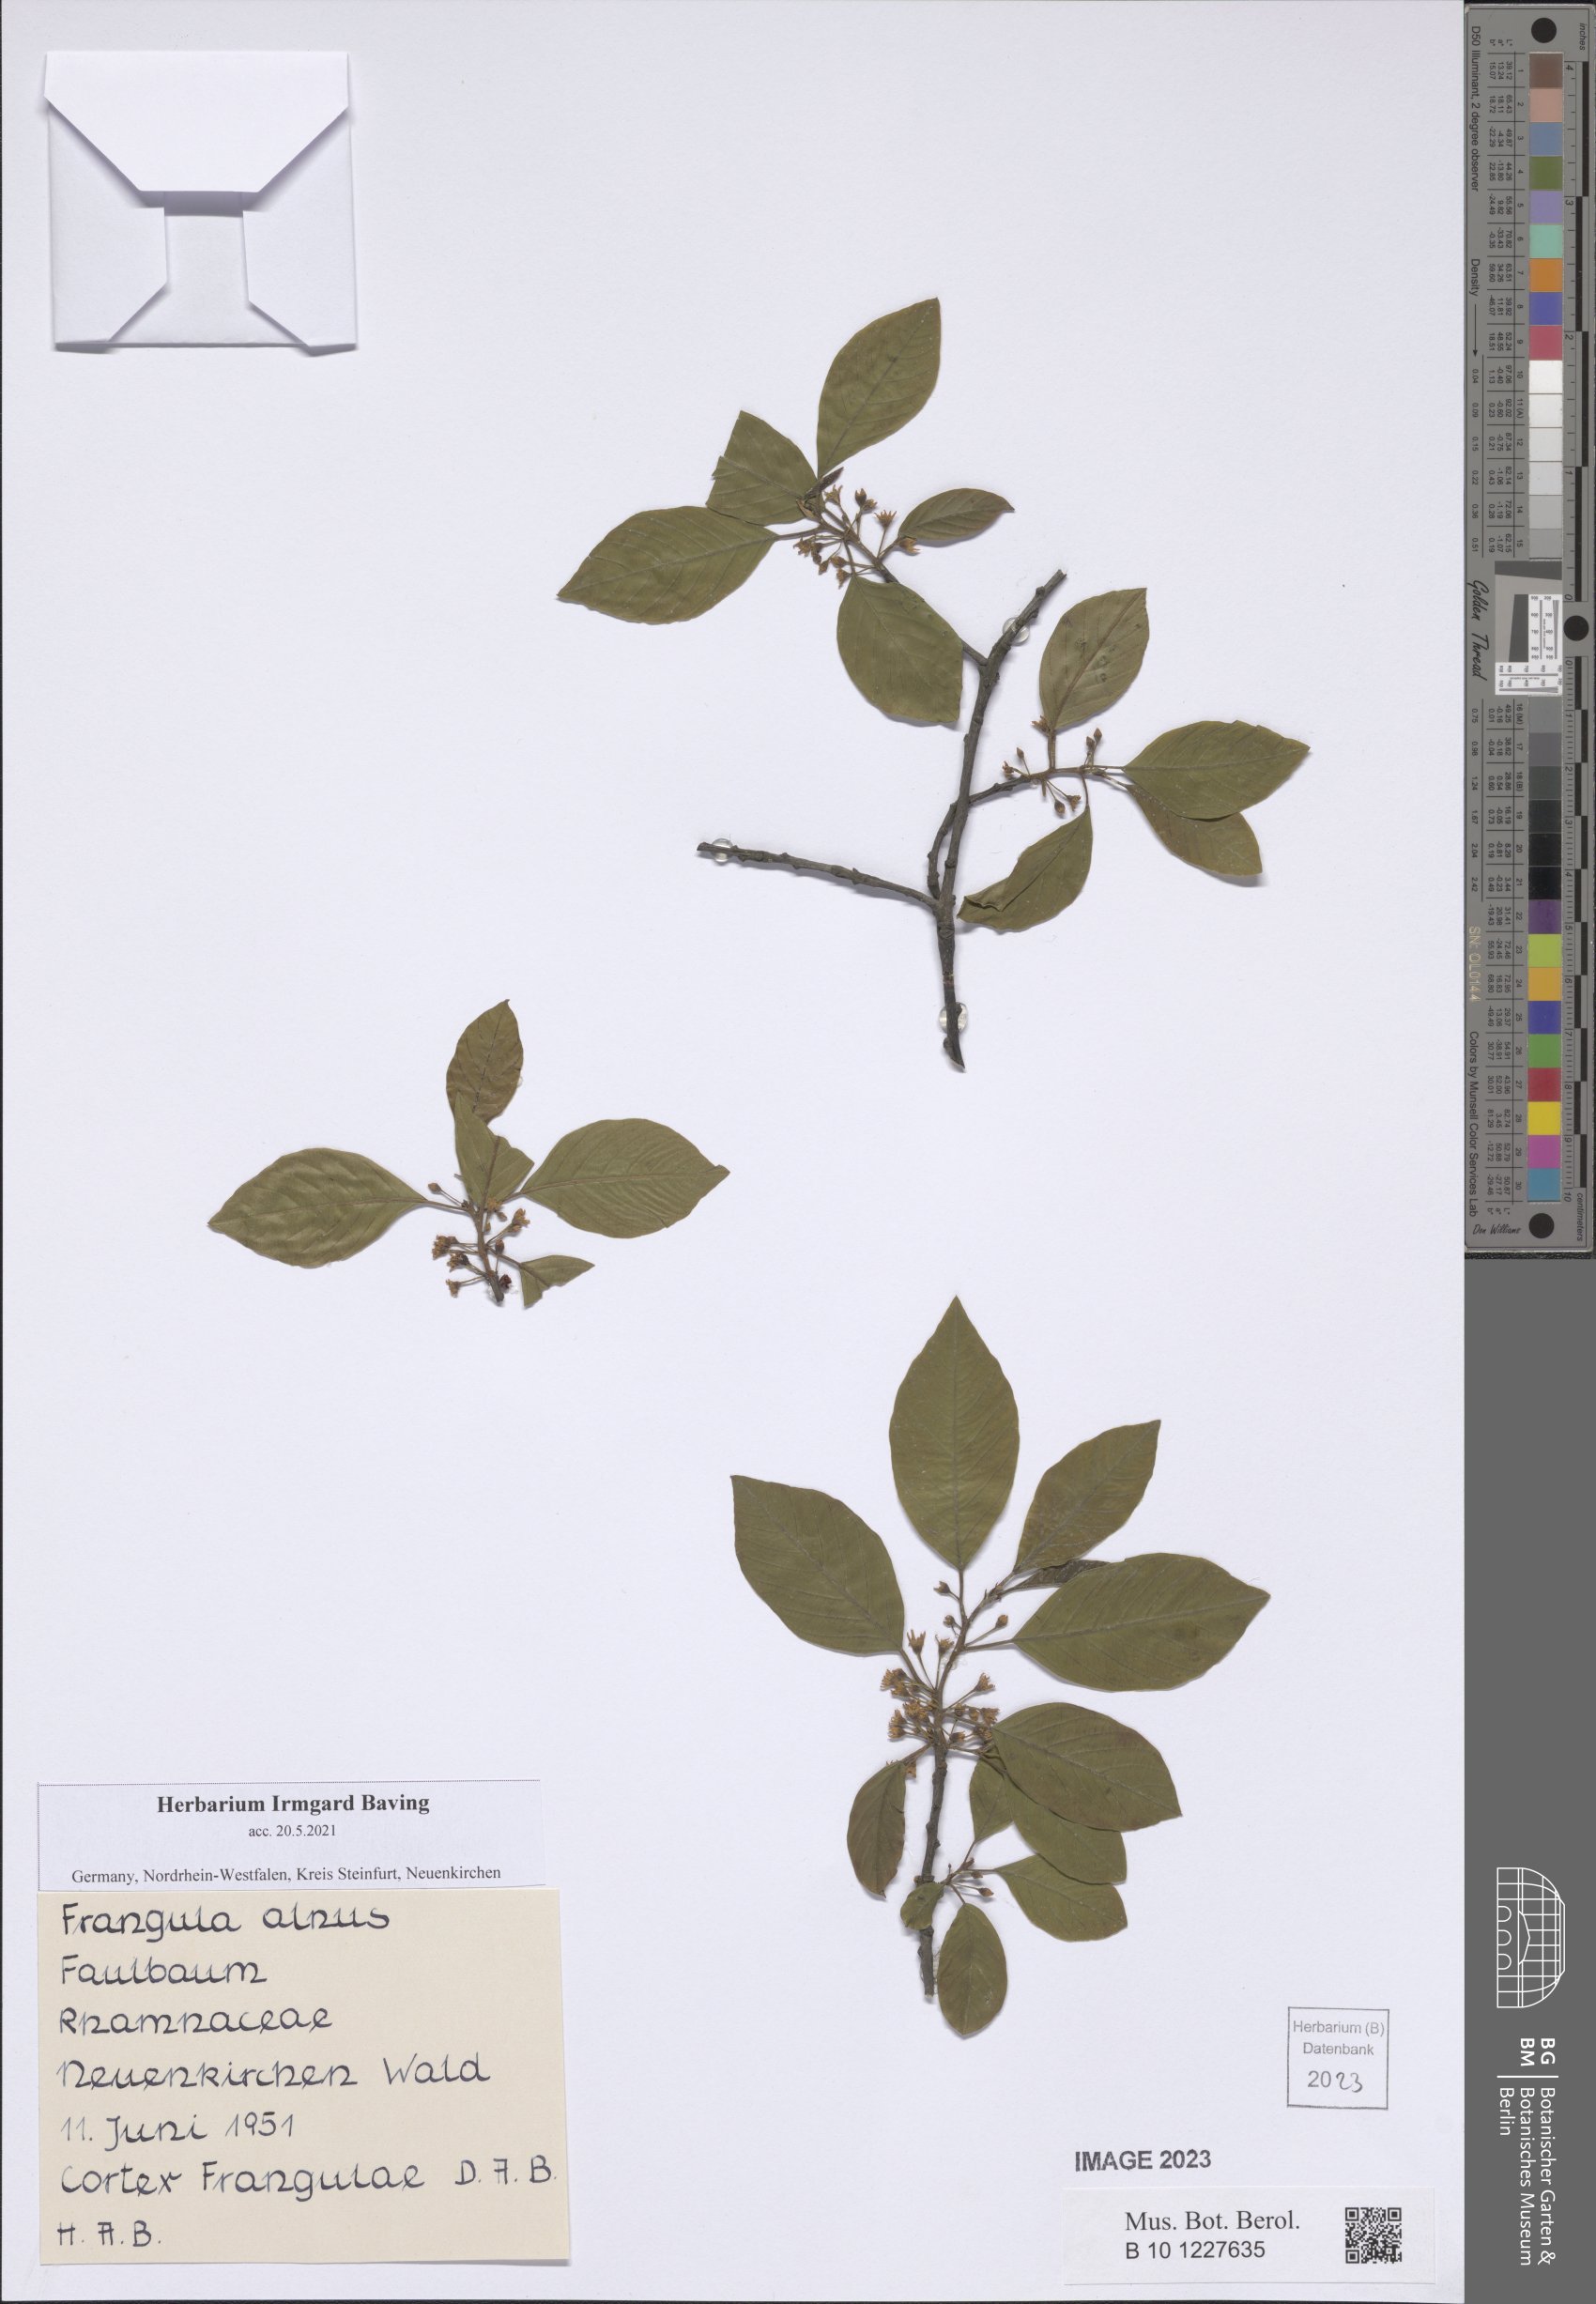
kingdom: Plantae
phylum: Tracheophyta
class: Magnoliopsida
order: Rosales
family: Rhamnaceae
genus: Frangula
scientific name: Frangula alnus
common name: Alder buckthorn
